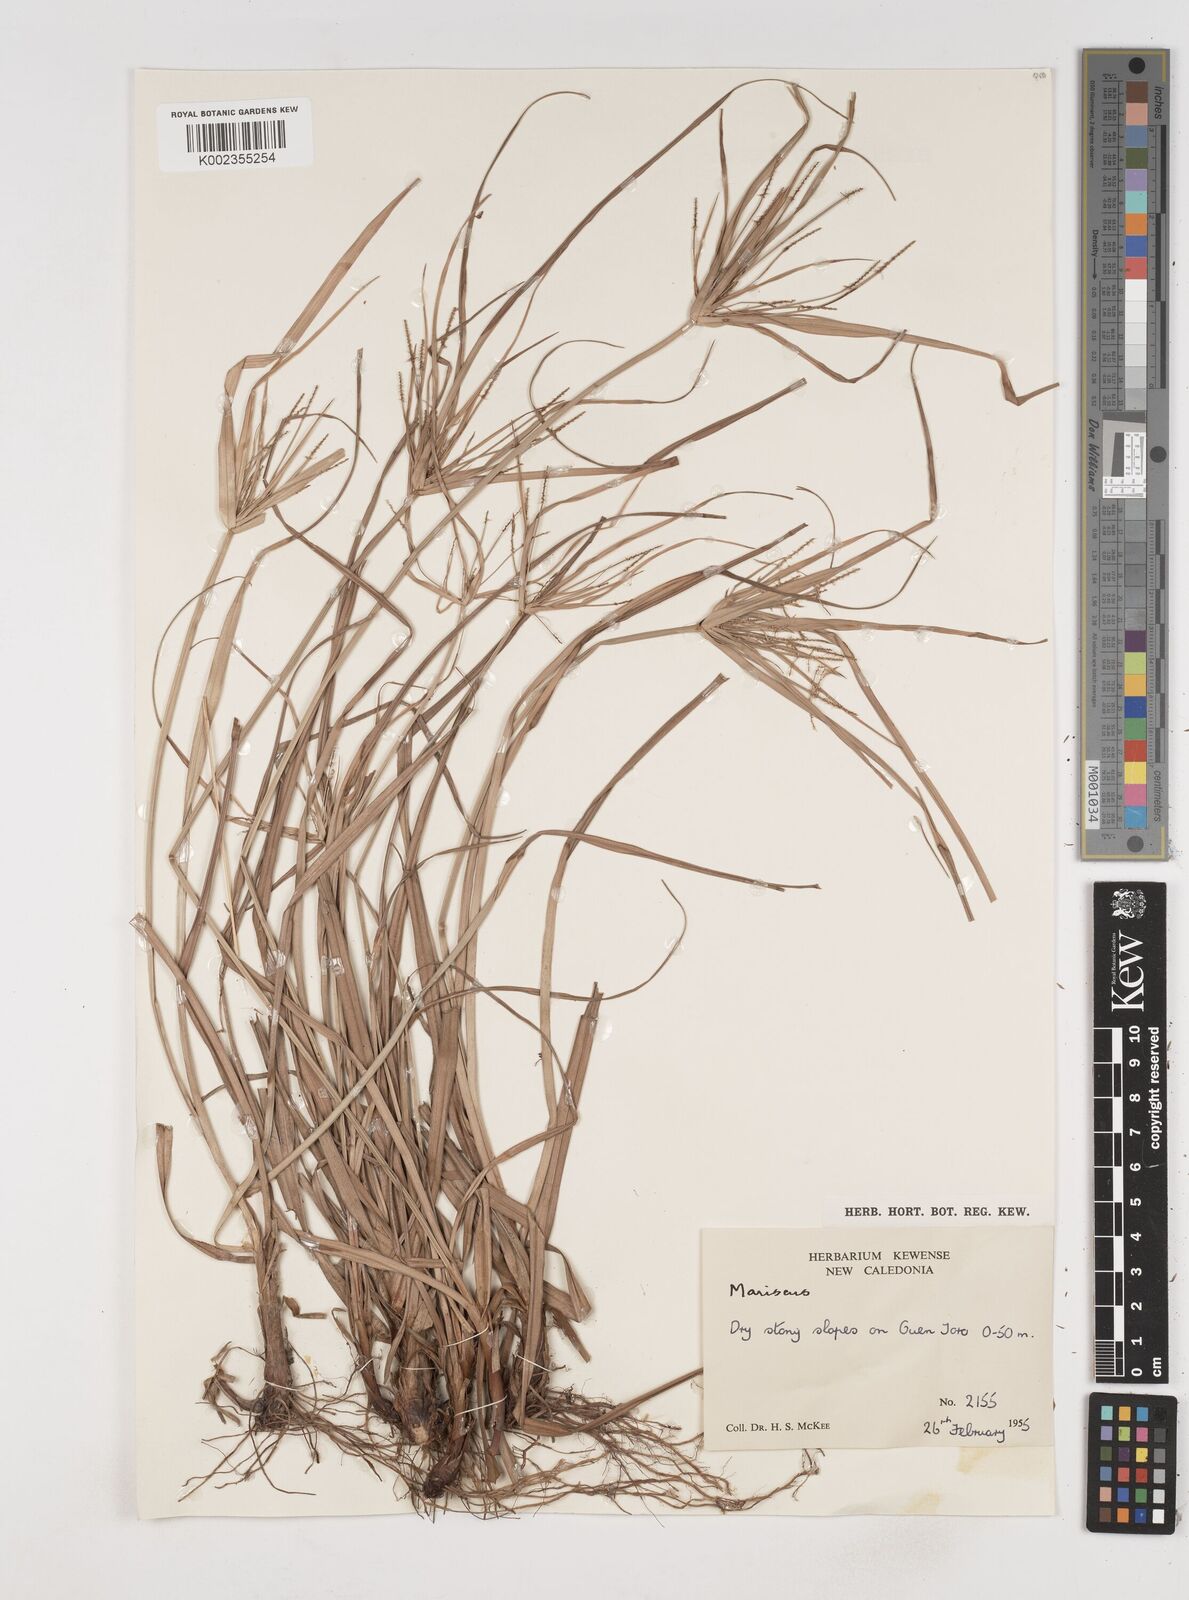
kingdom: Plantae
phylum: Tracheophyta
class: Liliopsida
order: Poales
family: Cyperaceae
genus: Cyperus
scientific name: Cyperus
